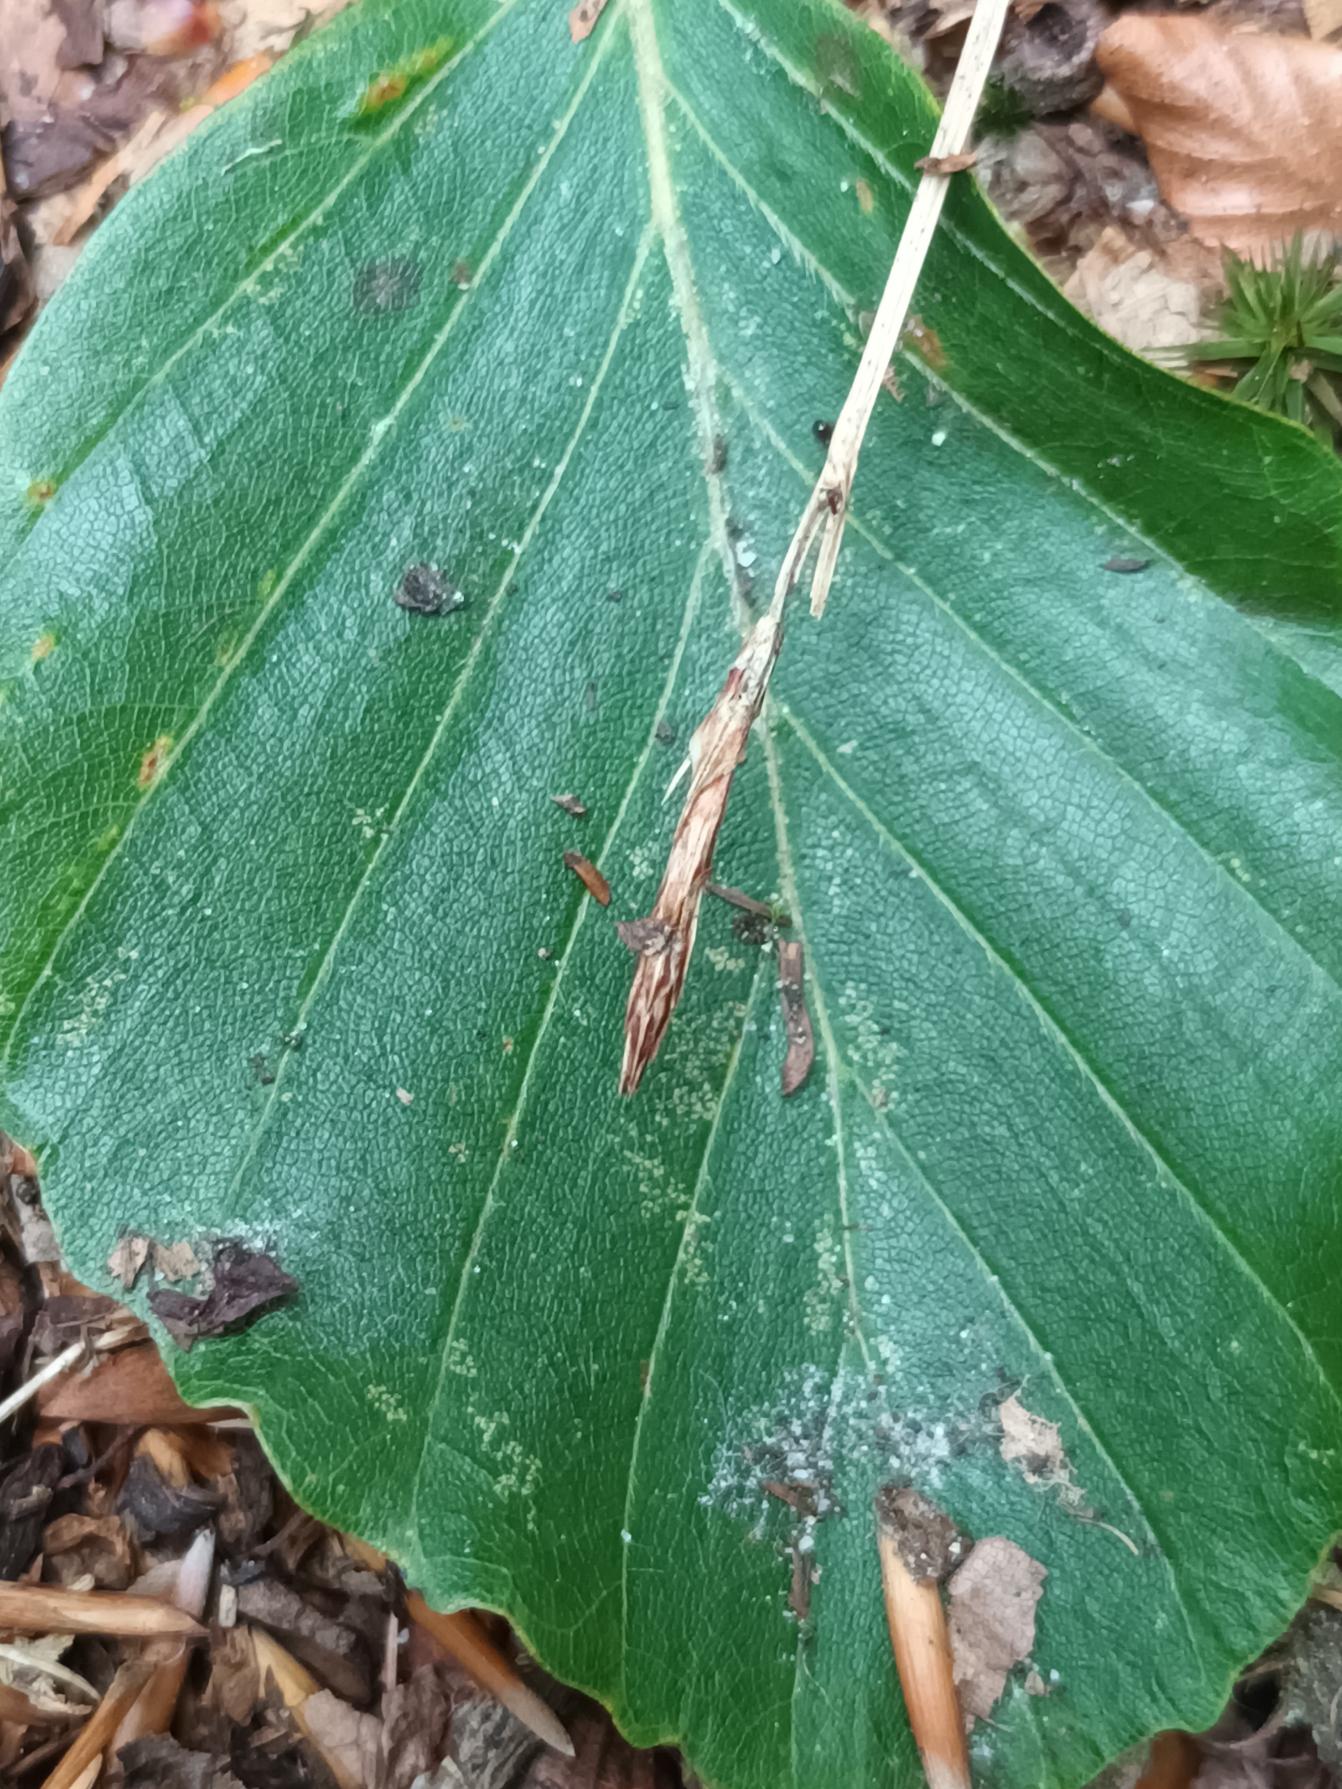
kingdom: Plantae
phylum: Tracheophyta
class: Liliopsida
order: Poales
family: Cyperaceae
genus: Carex
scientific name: Carex pilulifera
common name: Pille-star
